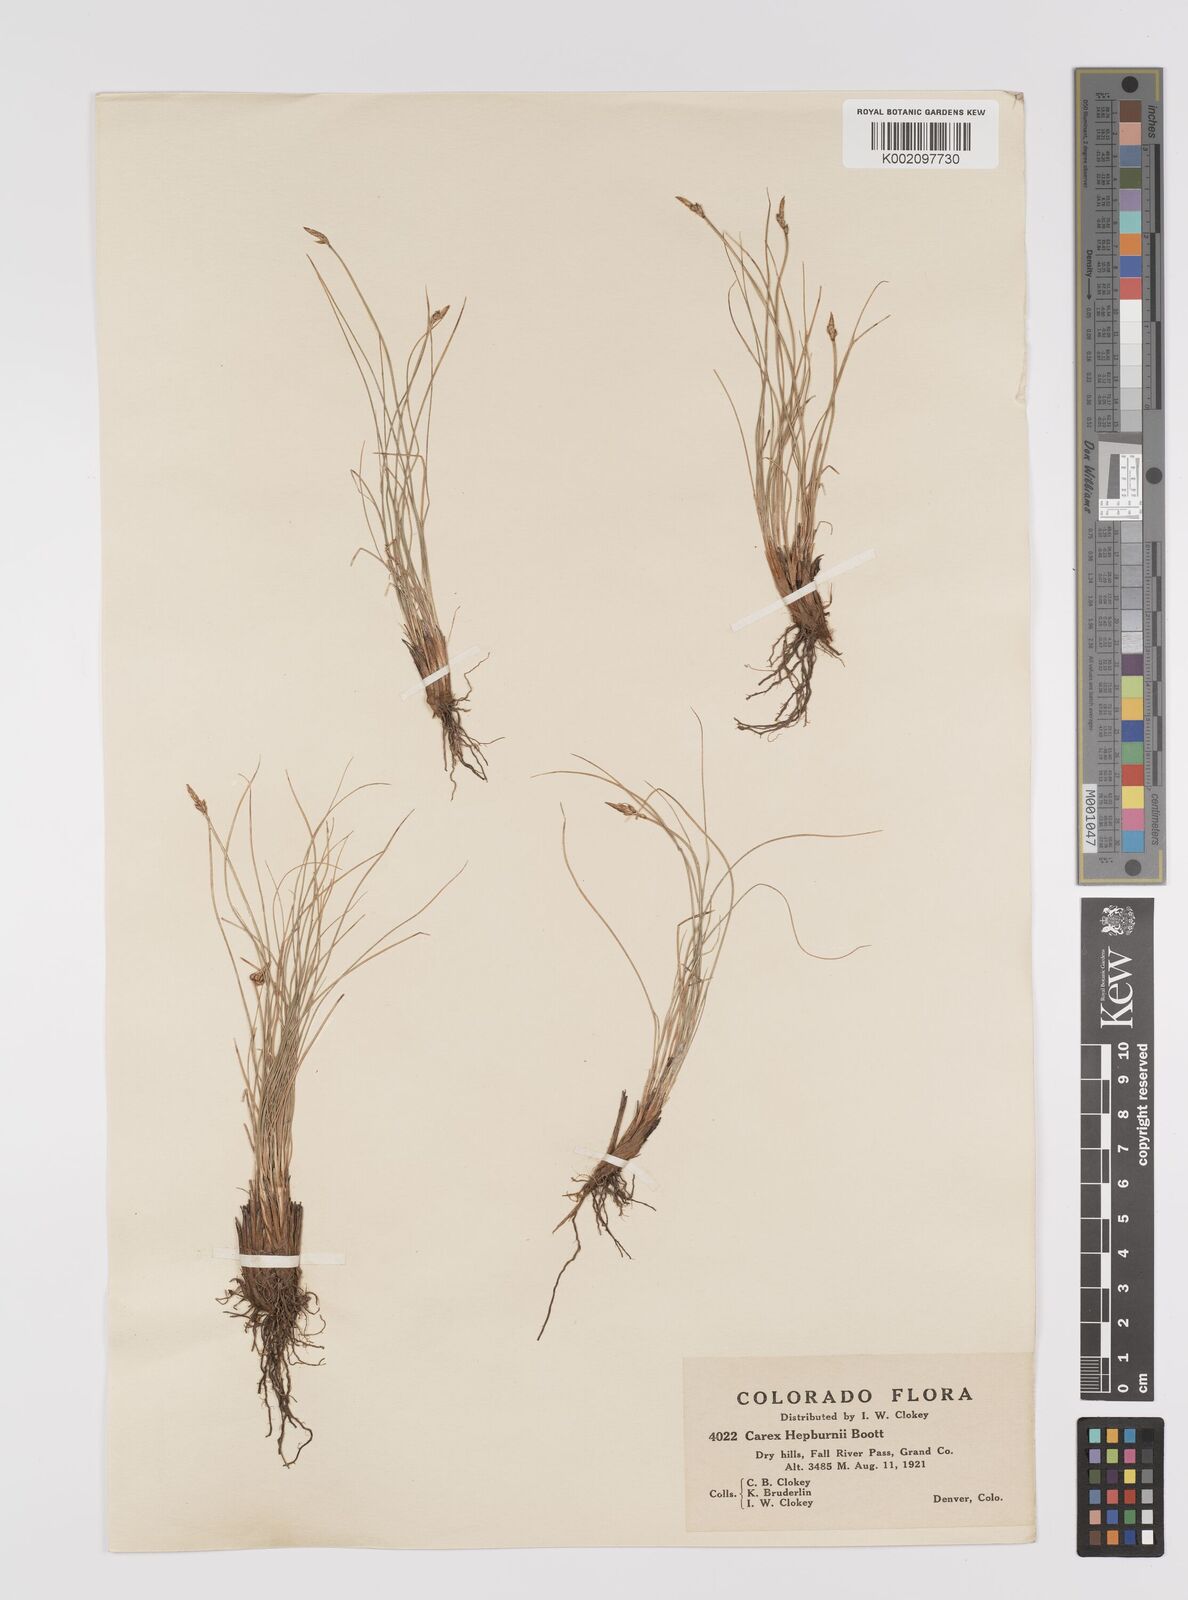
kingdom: Plantae
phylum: Tracheophyta
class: Liliopsida
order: Poales
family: Cyperaceae
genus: Carex
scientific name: Carex nardina
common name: Nard sedge
